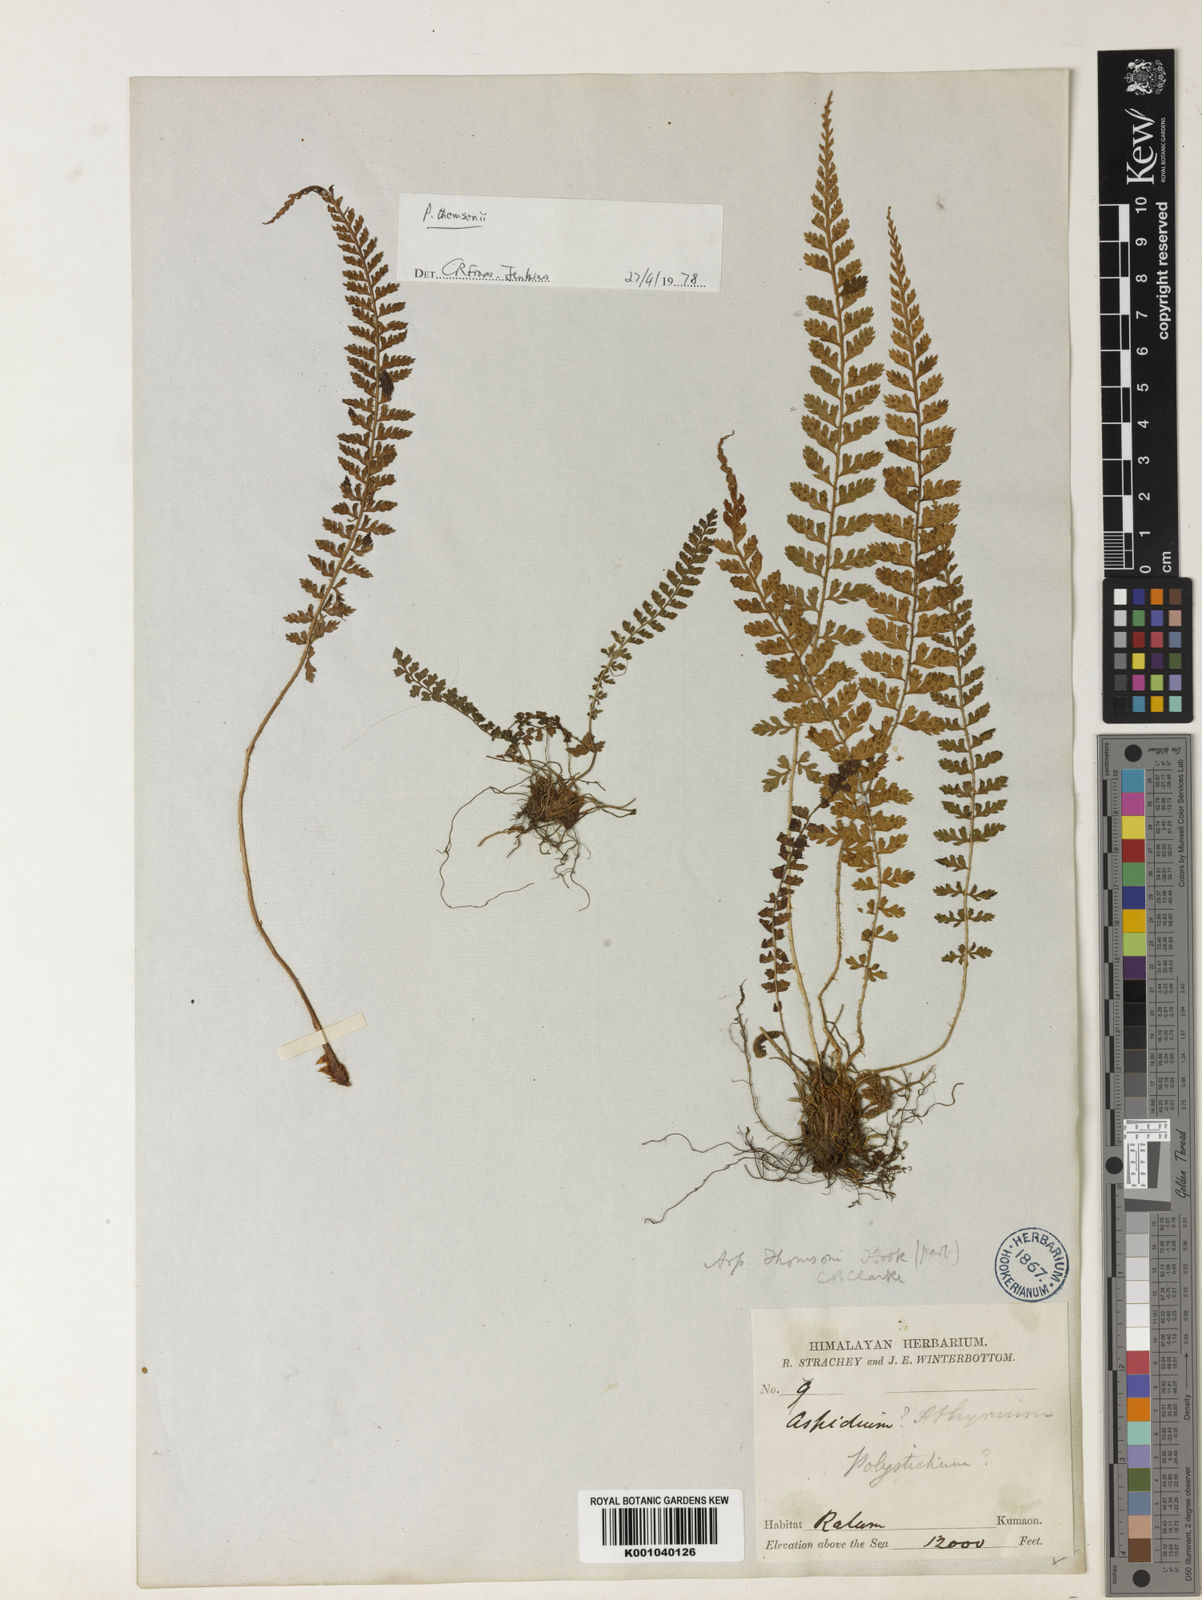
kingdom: Plantae
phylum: Tracheophyta
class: Polypodiopsida
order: Polypodiales
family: Dryopteridaceae
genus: Polystichum
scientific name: Polystichum thomsonii
